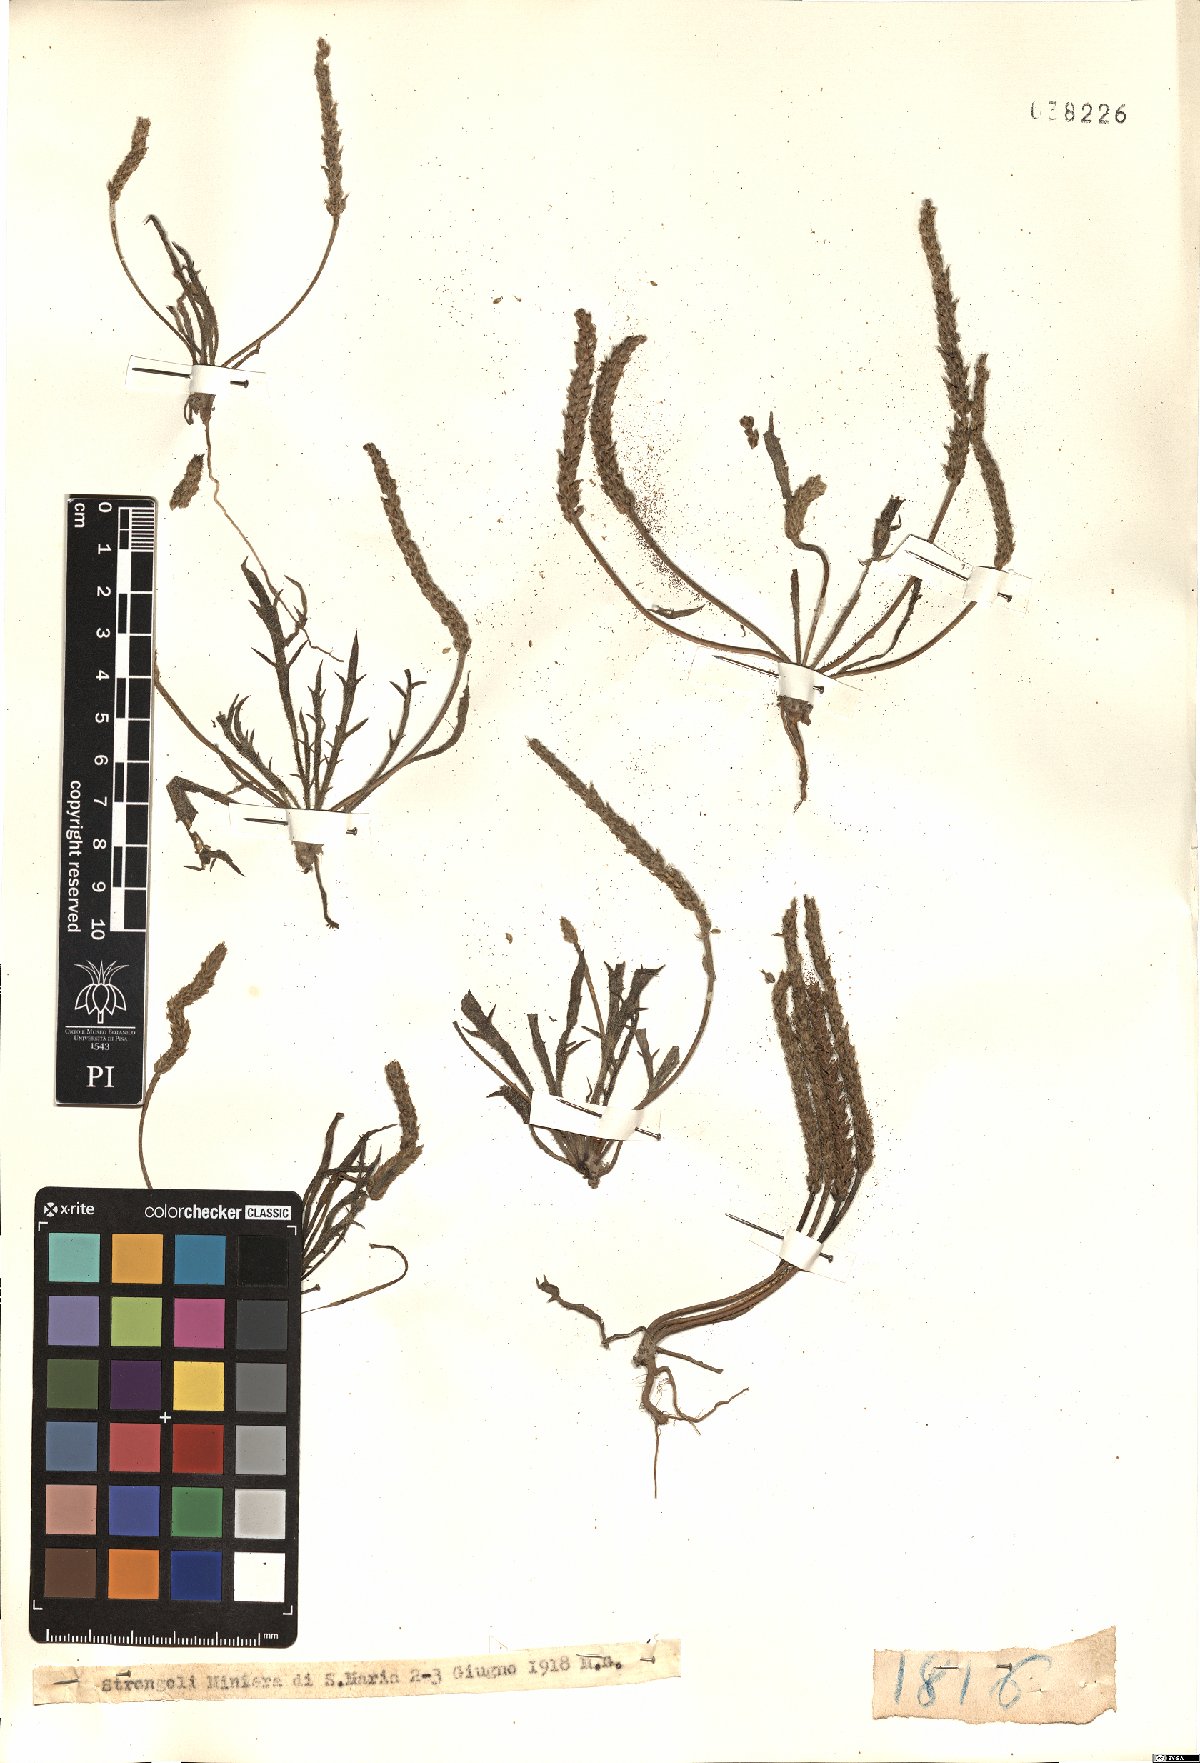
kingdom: Plantae
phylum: Tracheophyta
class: Magnoliopsida
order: Lamiales
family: Plantaginaceae
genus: Plantago
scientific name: Plantago
